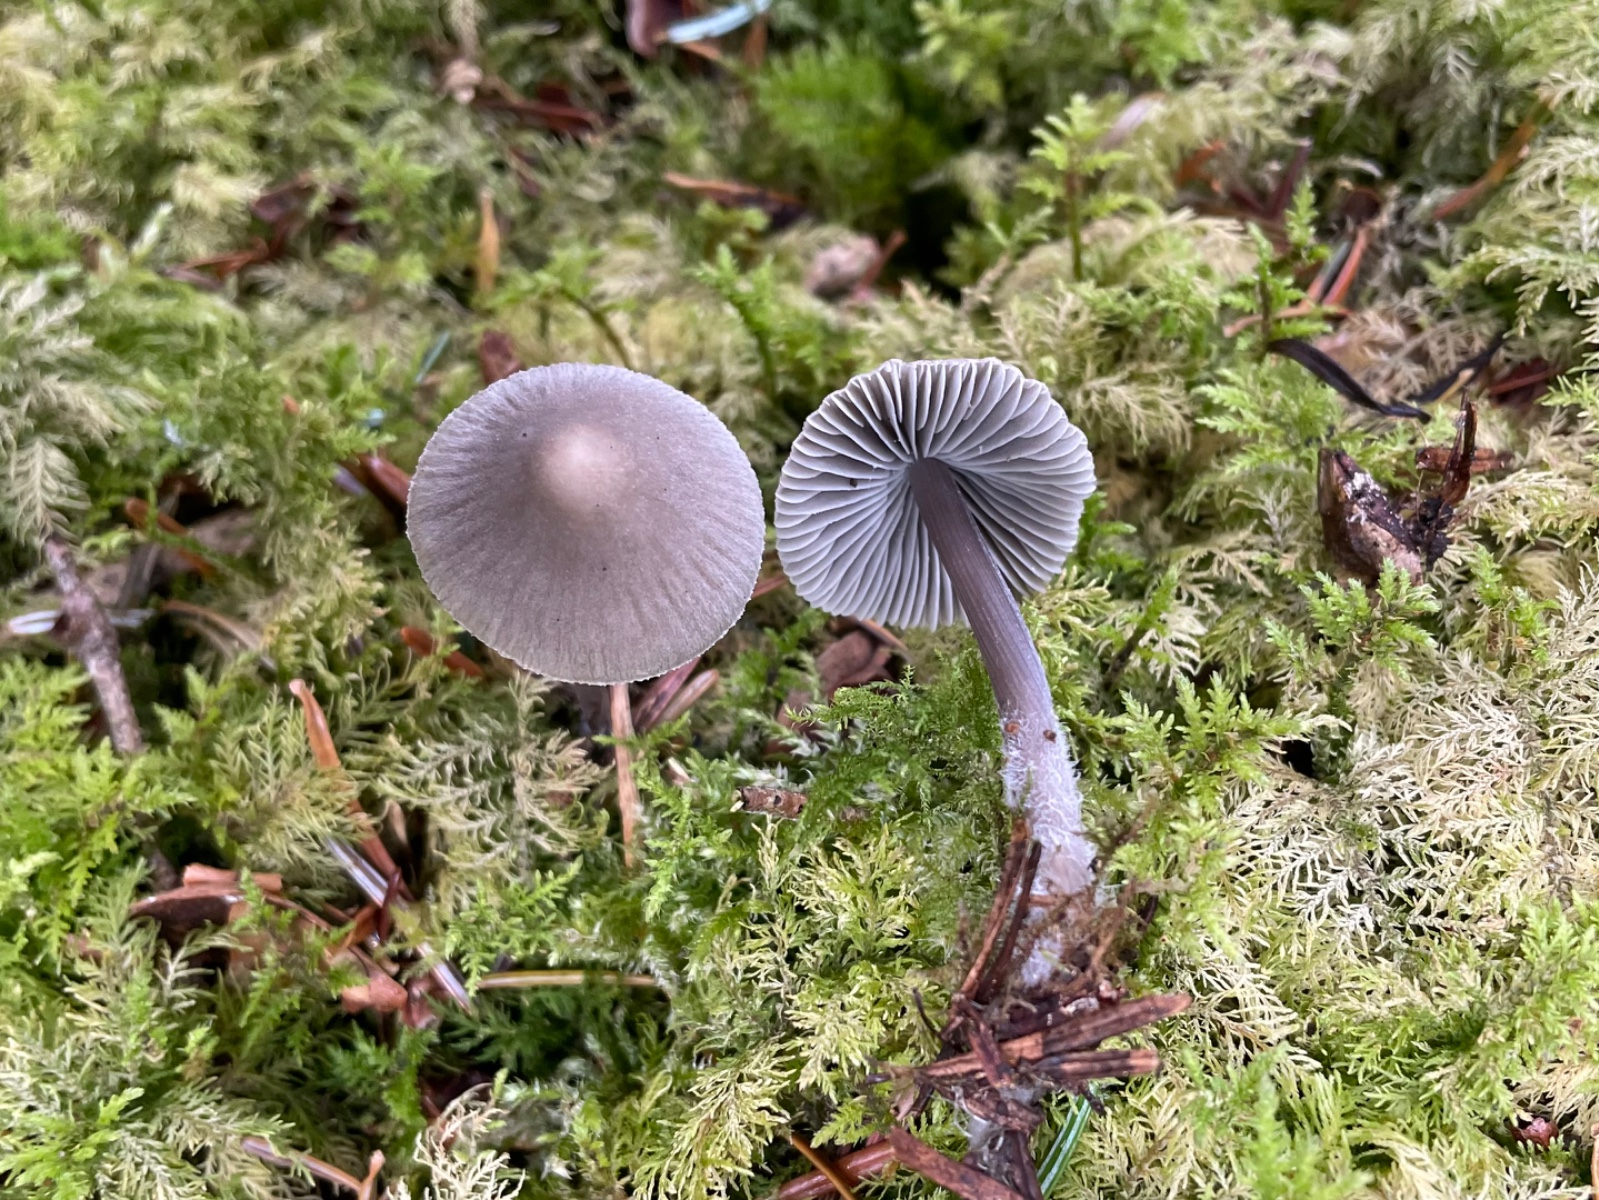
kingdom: Fungi
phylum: Basidiomycota
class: Agaricomycetes
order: Agaricales
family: Mycenaceae
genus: Mycena
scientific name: Mycena
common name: huesvamp
